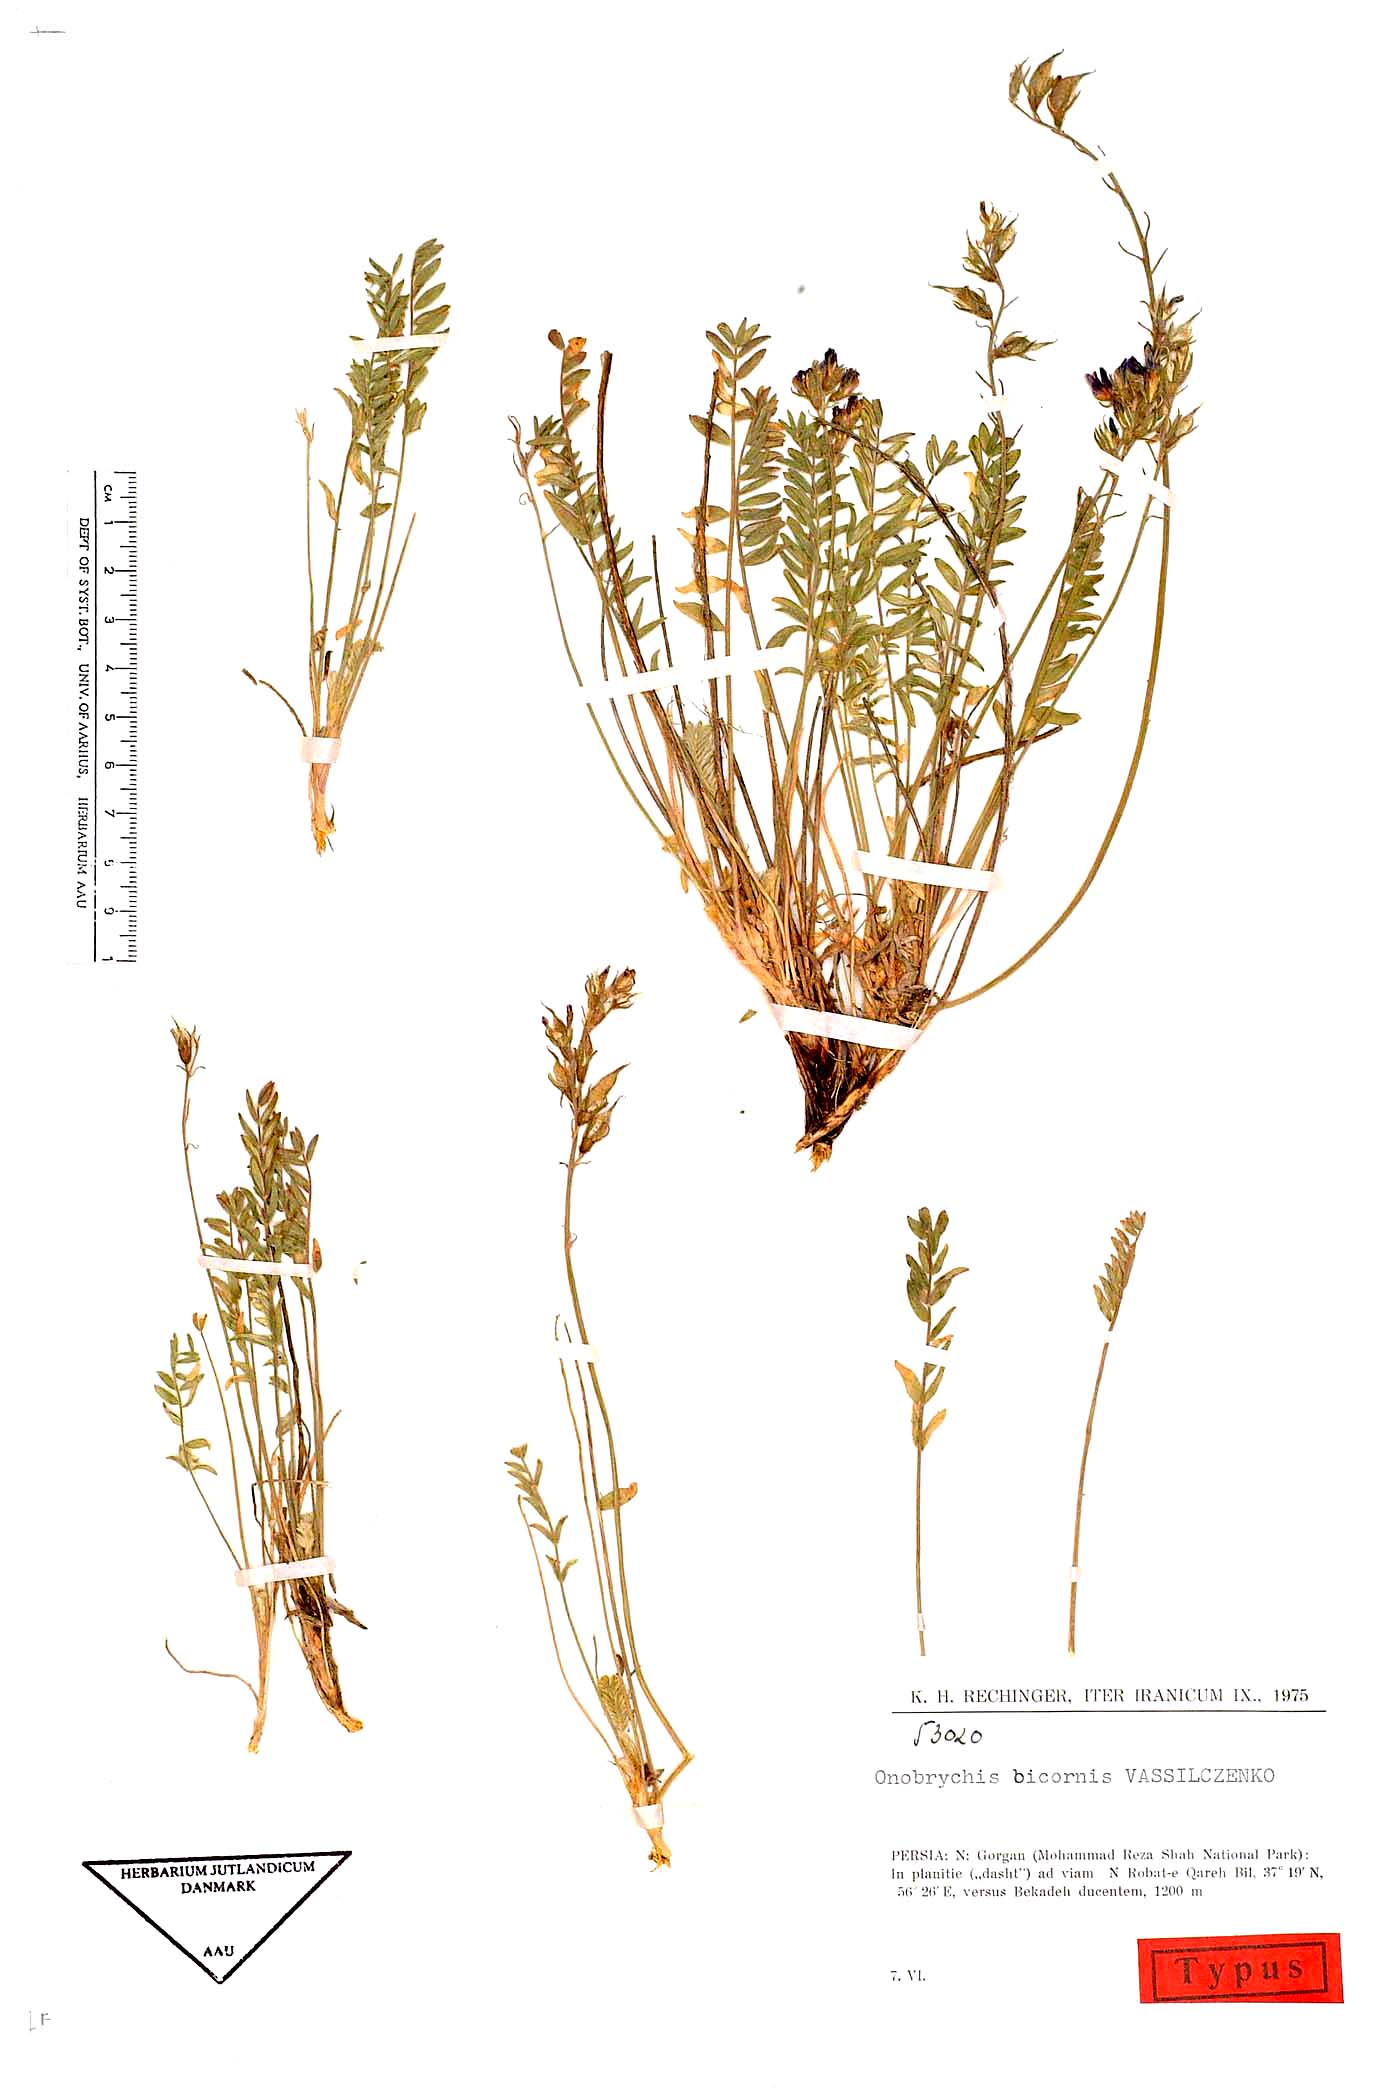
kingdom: Plantae
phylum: Tracheophyta
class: Magnoliopsida
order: Fabales
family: Fabaceae
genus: Onobrychis
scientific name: Onobrychis bicornis
